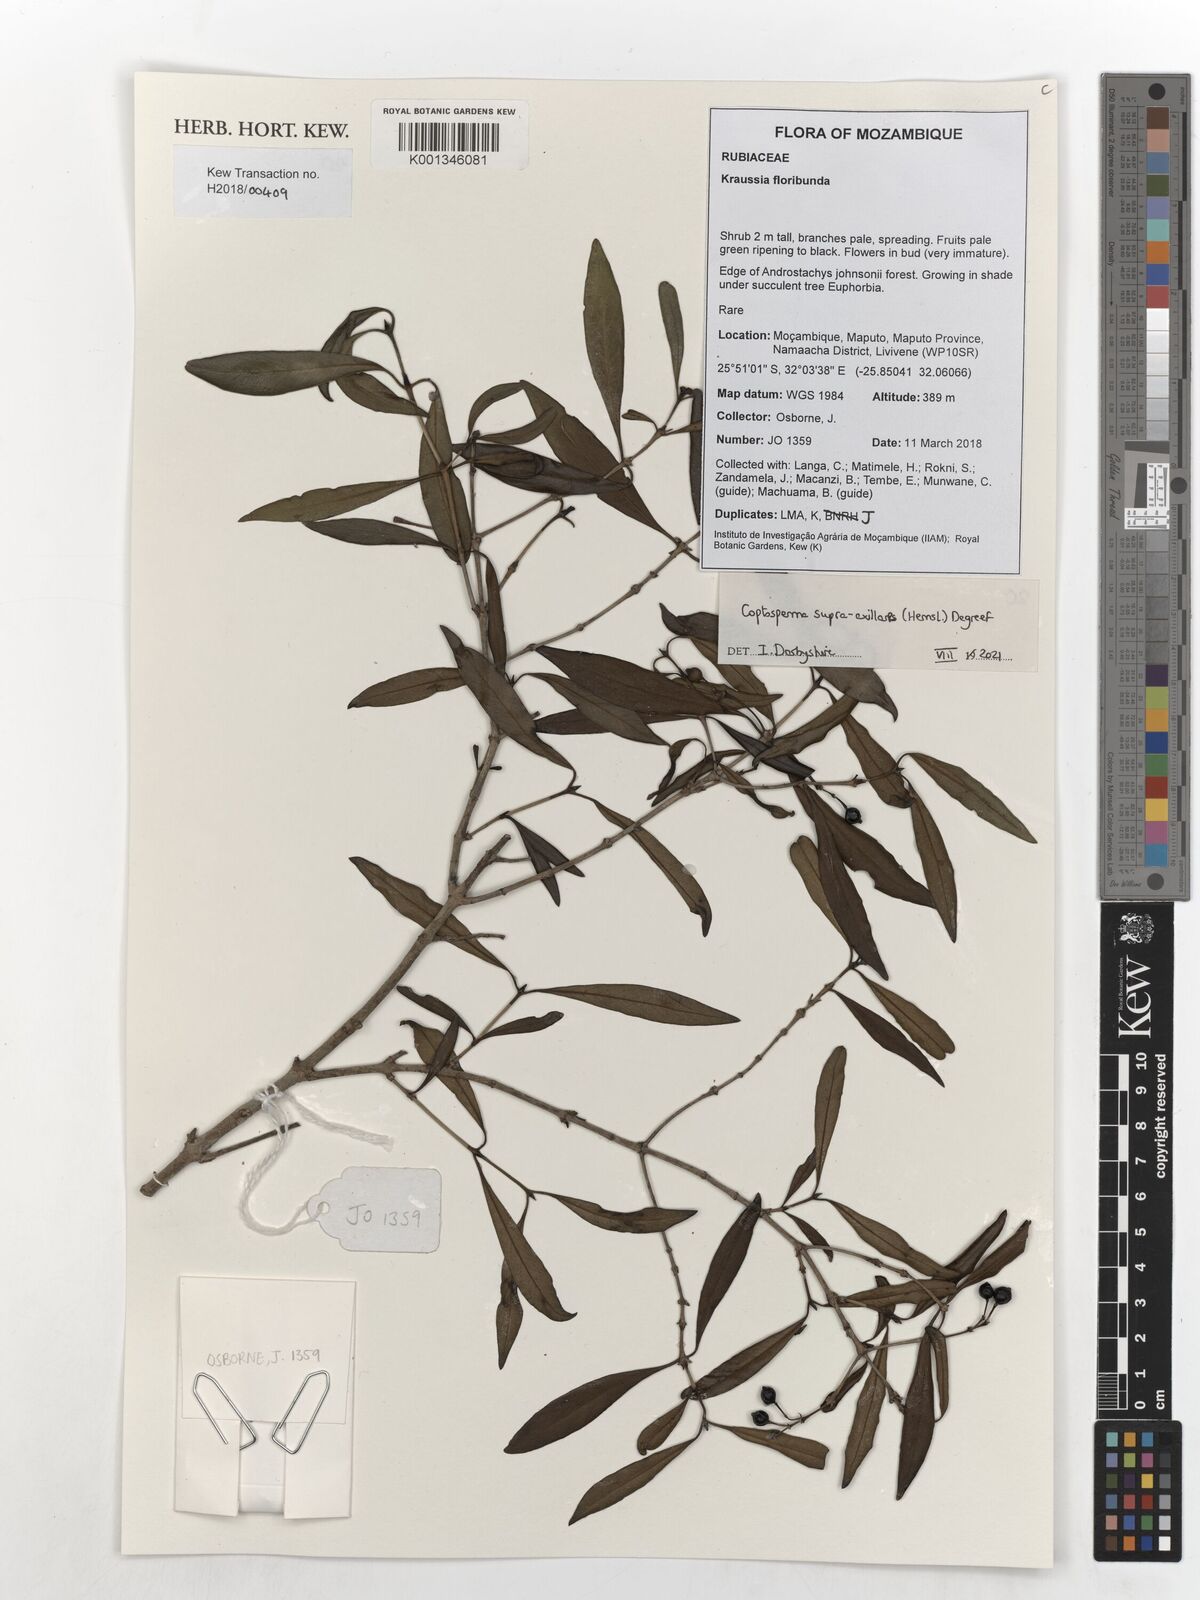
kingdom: Plantae
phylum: Tracheophyta
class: Magnoliopsida
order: Gentianales
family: Rubiaceae
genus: Coptosperma
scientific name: Coptosperma supra-axillare
